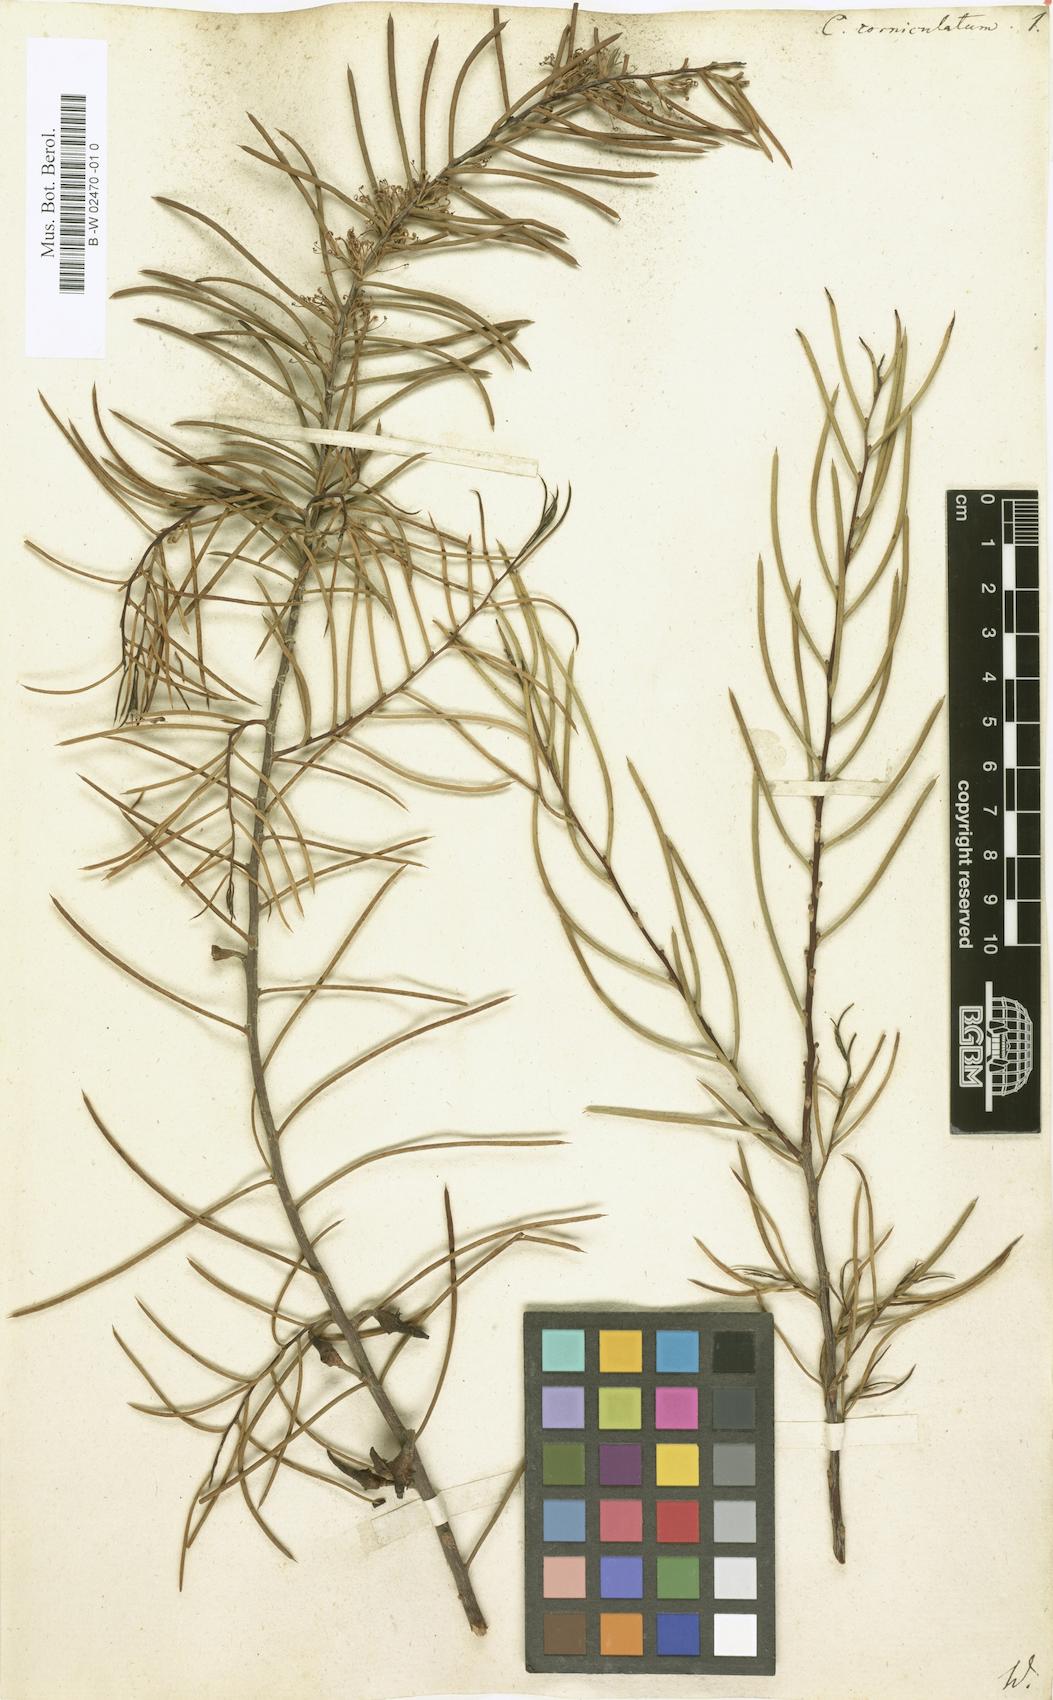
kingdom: Plantae
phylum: Tracheophyta
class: Magnoliopsida
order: Proteales
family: Proteaceae
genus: Hakea
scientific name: Hakea teretifolia
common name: Dagger hakea
